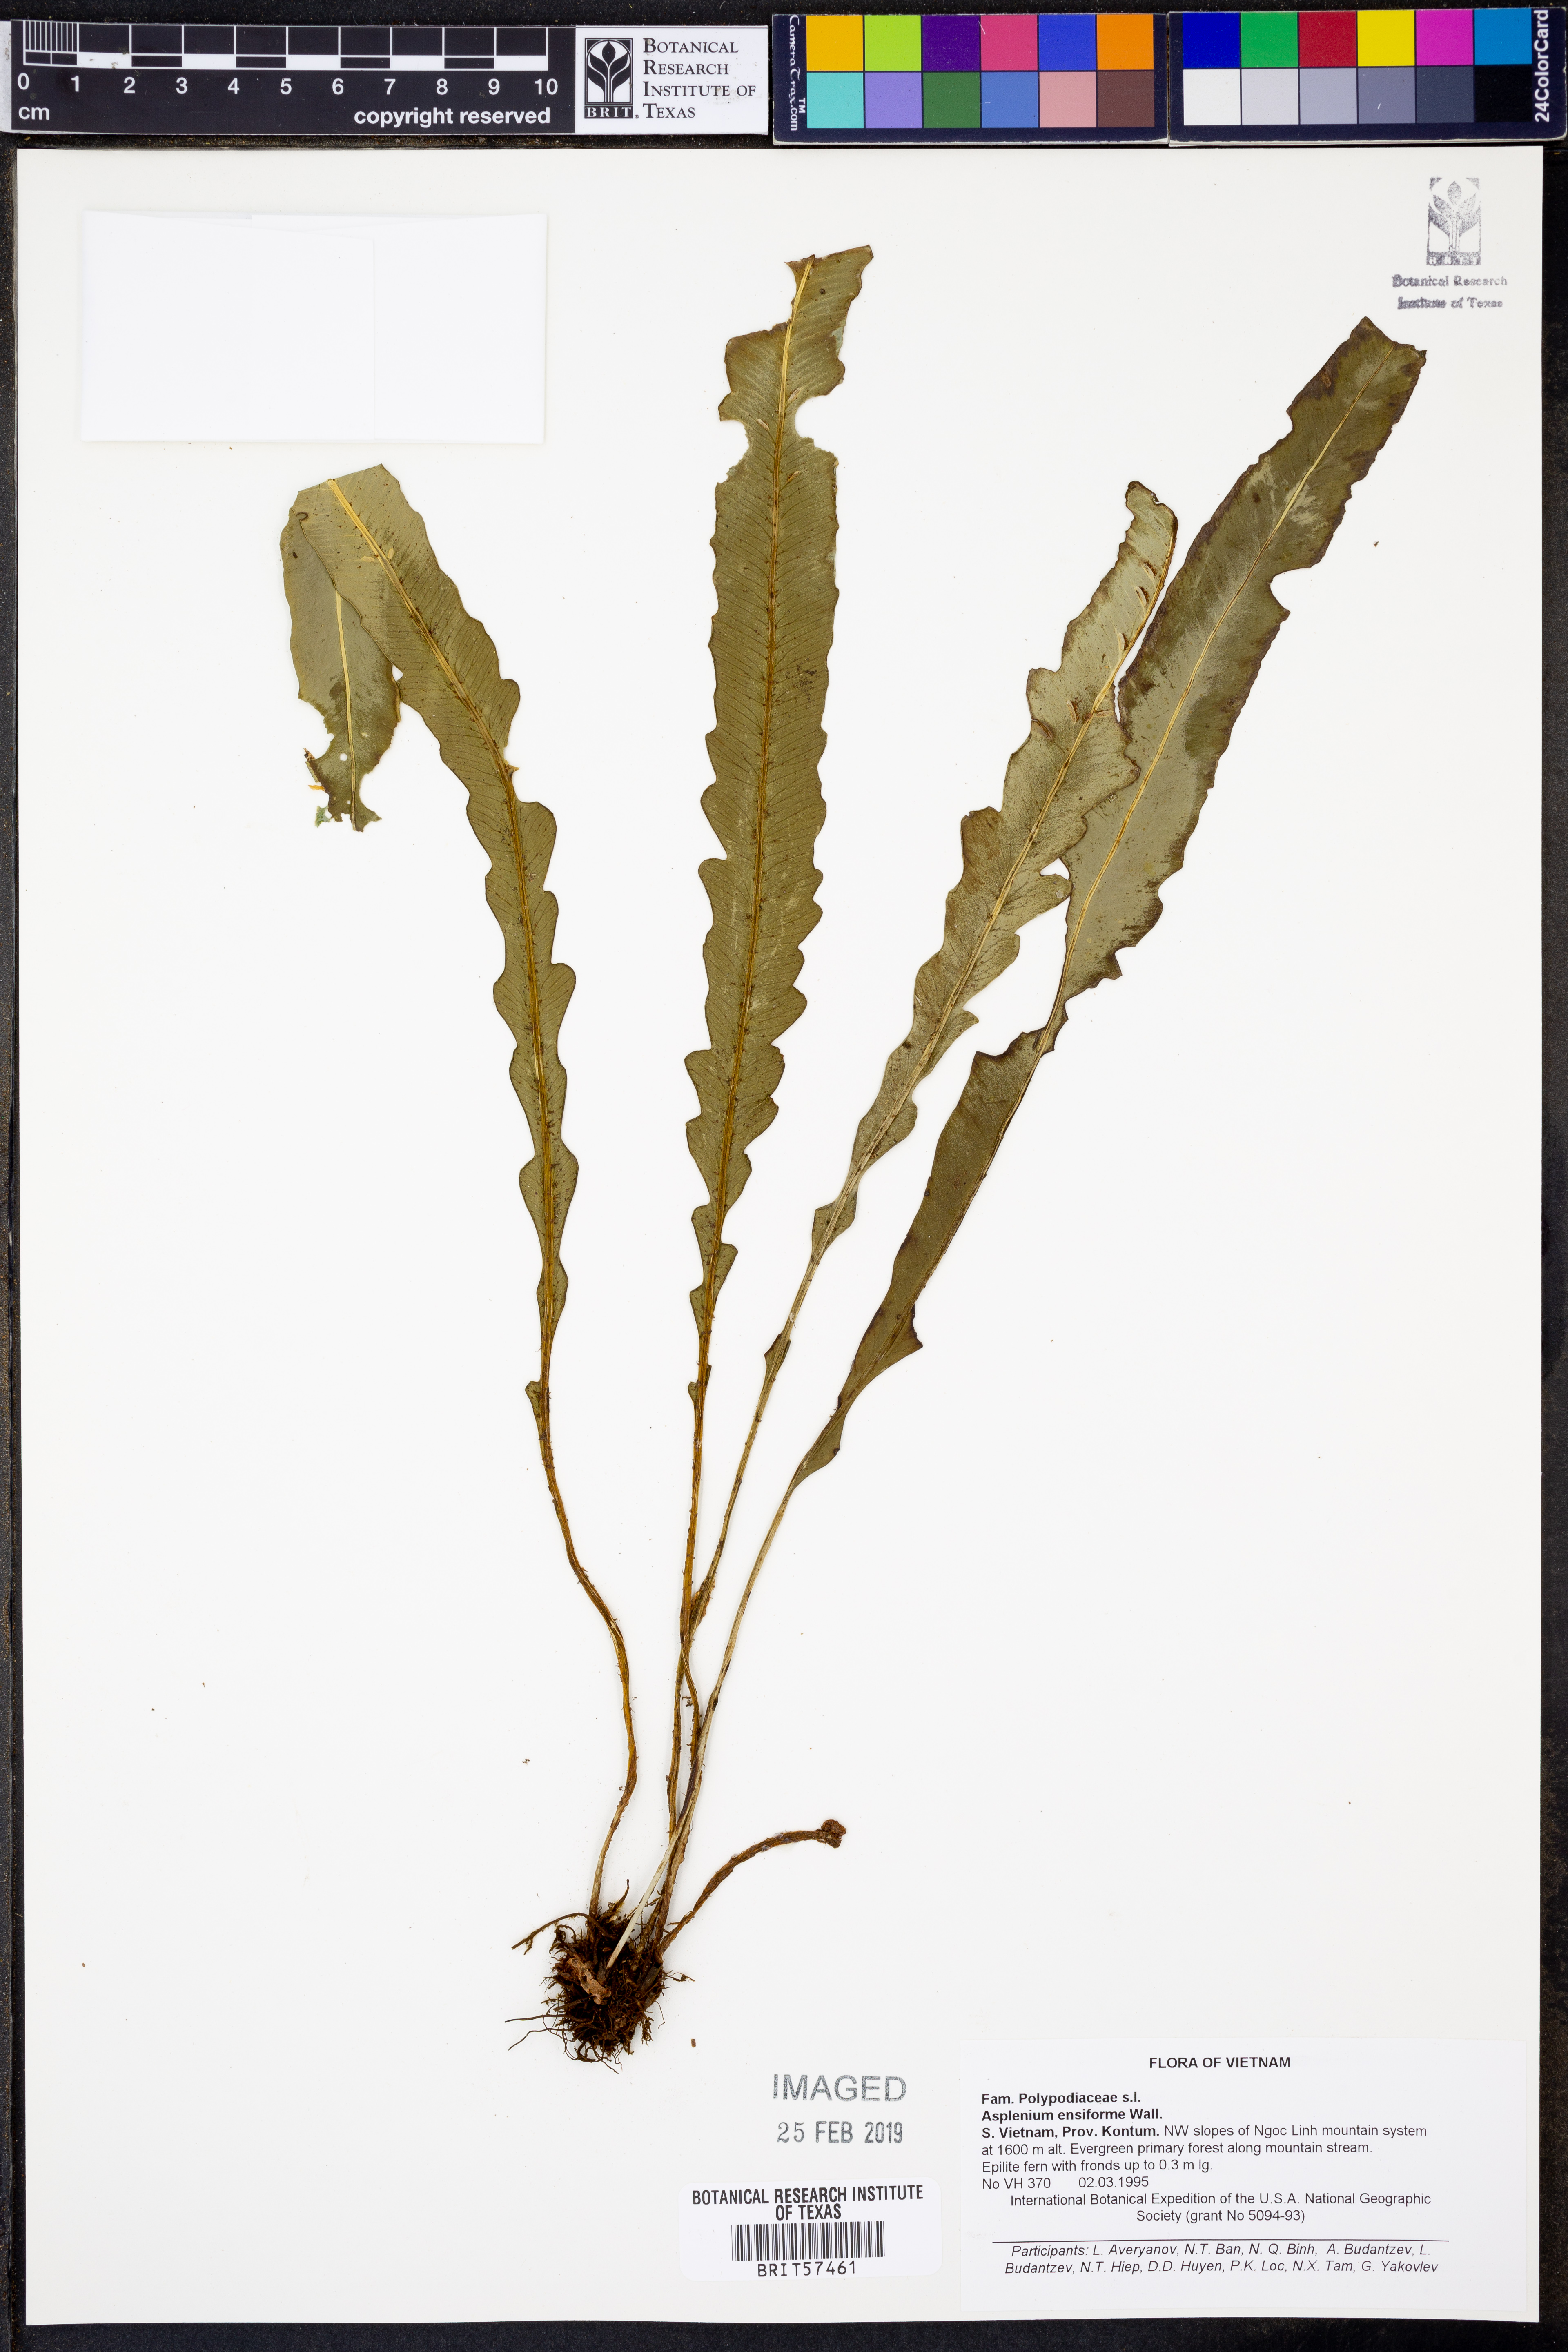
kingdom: Plantae
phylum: Tracheophyta
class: Polypodiopsida
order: Polypodiales
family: Aspleniaceae
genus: Asplenium
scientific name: Asplenium ensiforme
